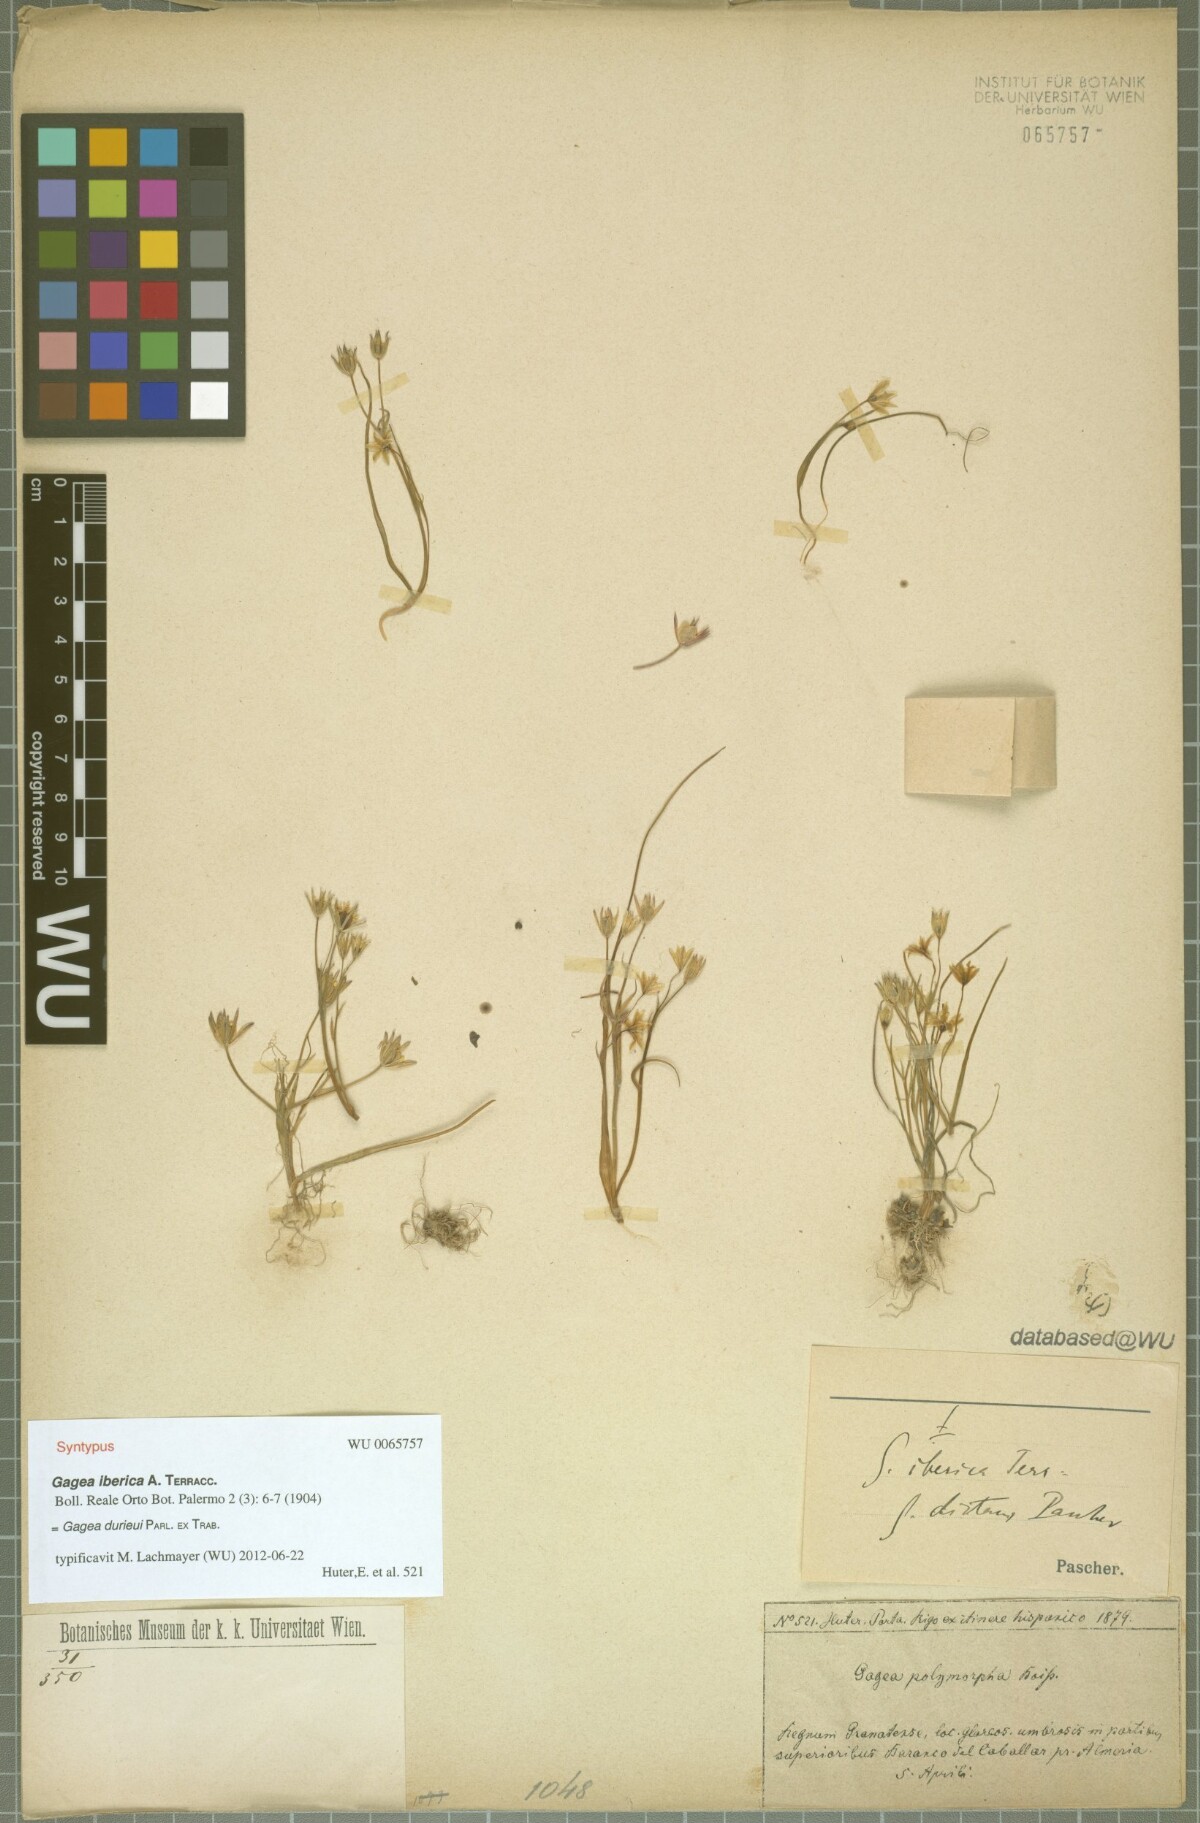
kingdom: Plantae
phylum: Tracheophyta
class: Liliopsida
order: Liliales
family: Liliaceae
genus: Gagea
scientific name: Gagea durieui
